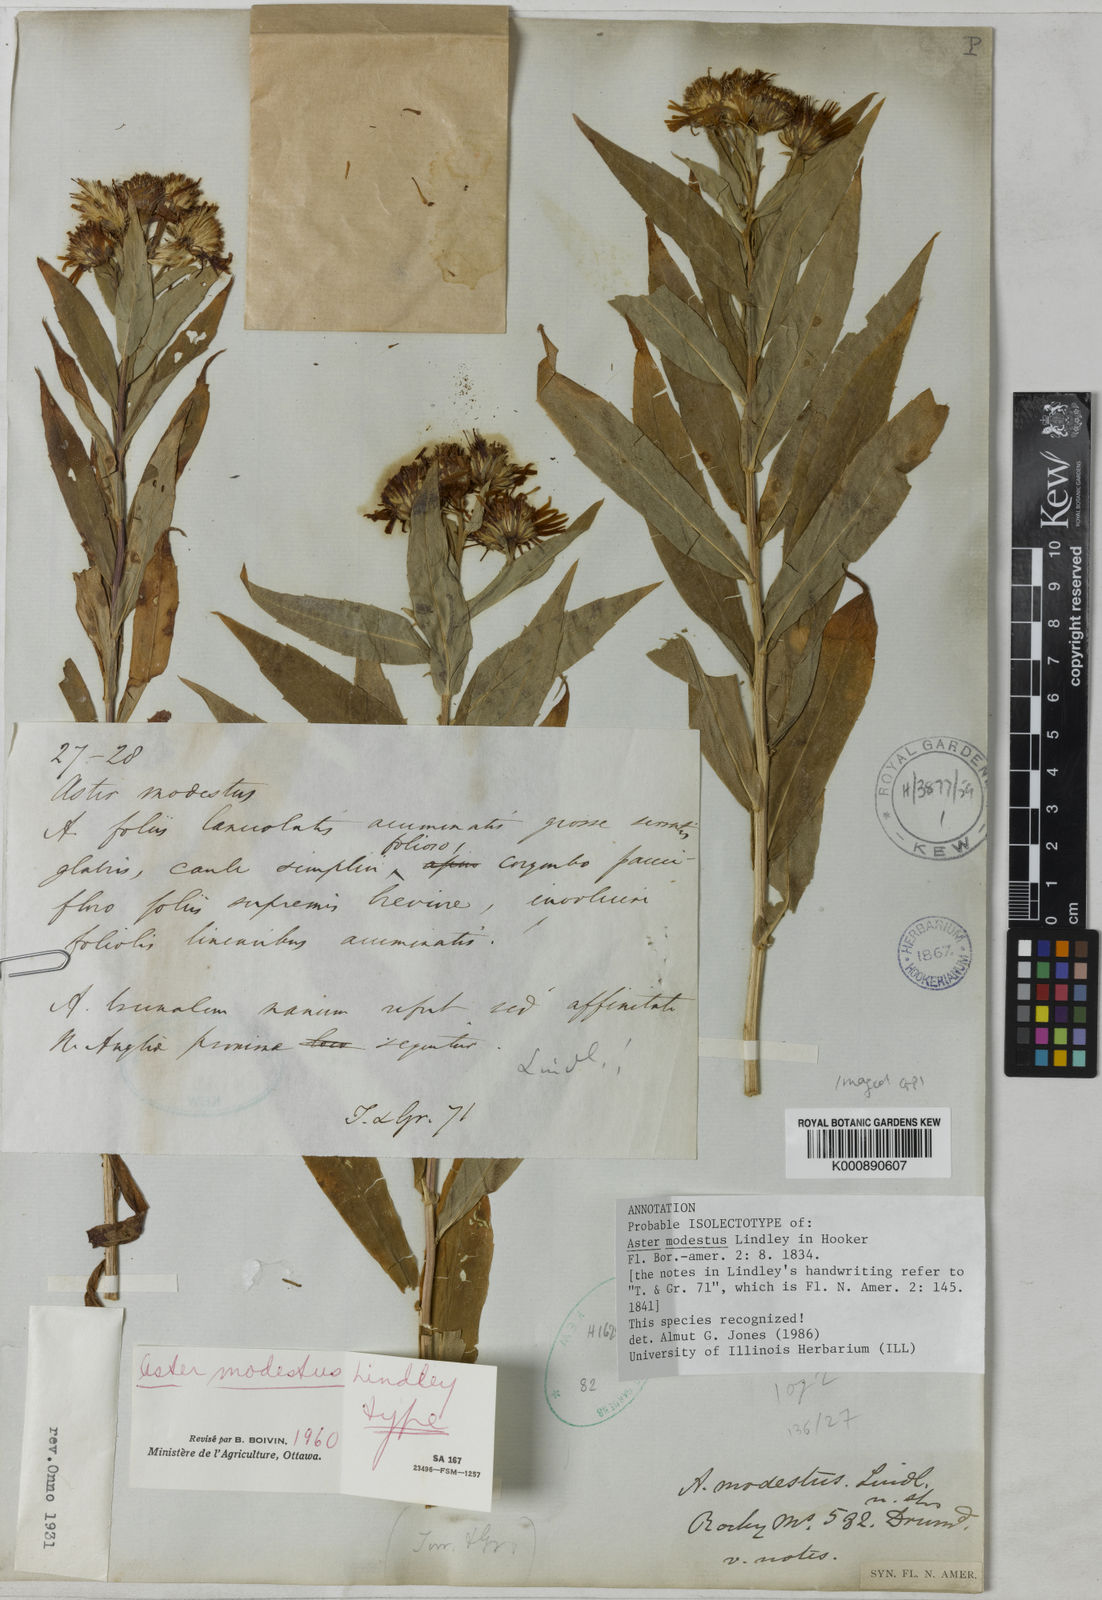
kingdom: Plantae
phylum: Tracheophyta
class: Magnoliopsida
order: Asterales
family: Asteraceae
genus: Canadanthus
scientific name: Canadanthus modestus
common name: Great northern aster
